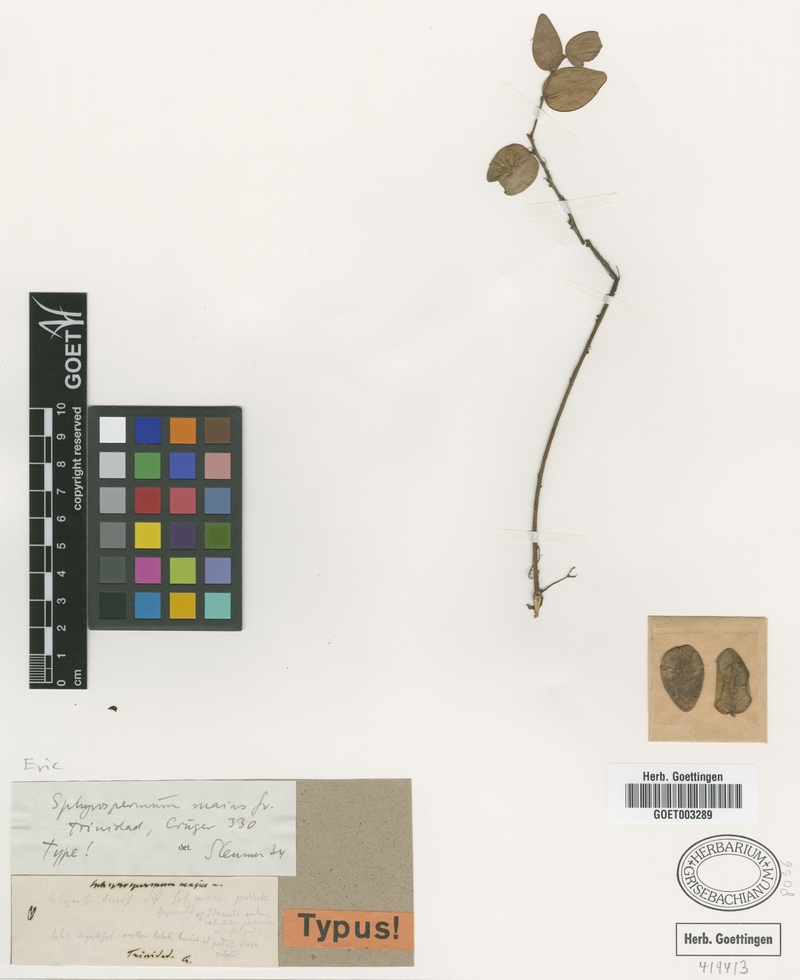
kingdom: Plantae
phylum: Tracheophyta
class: Magnoliopsida
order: Ericales
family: Ericaceae
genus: Sphyrospermum
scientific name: Sphyrospermum cordifolium
